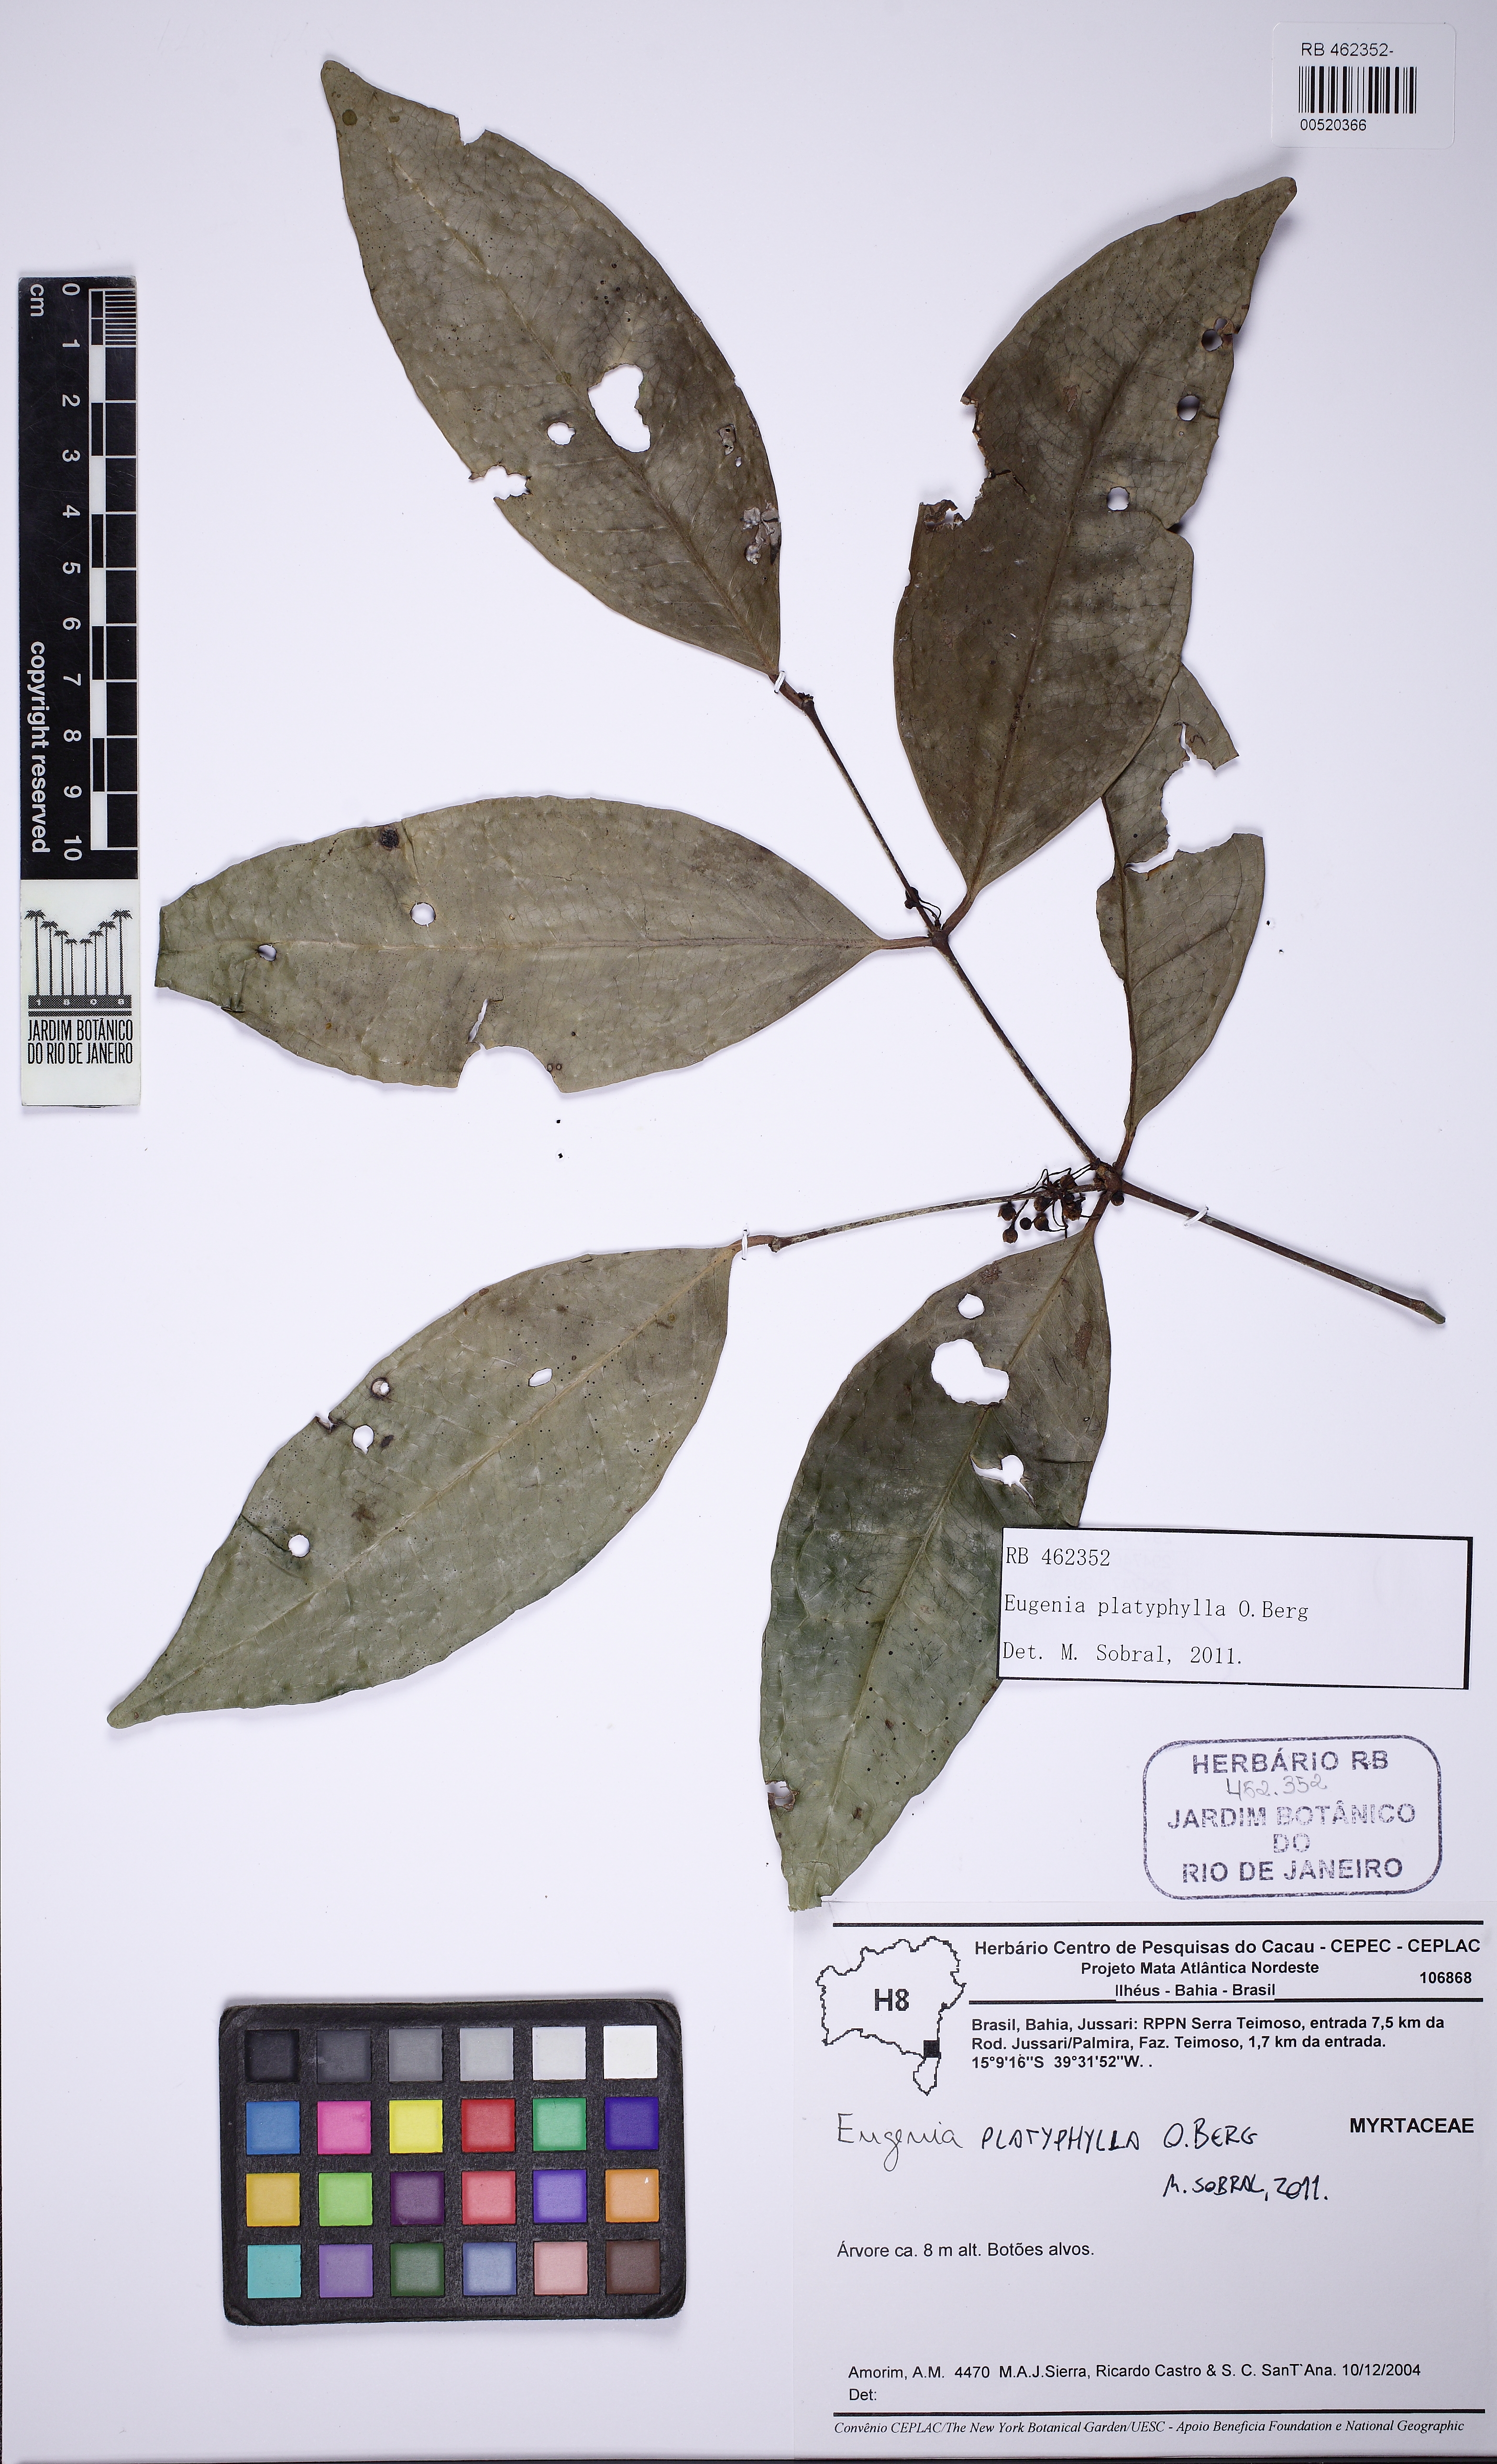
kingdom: Plantae
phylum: Tracheophyta
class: Magnoliopsida
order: Myrtales
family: Myrtaceae
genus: Eugenia
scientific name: Eugenia platyphylla
